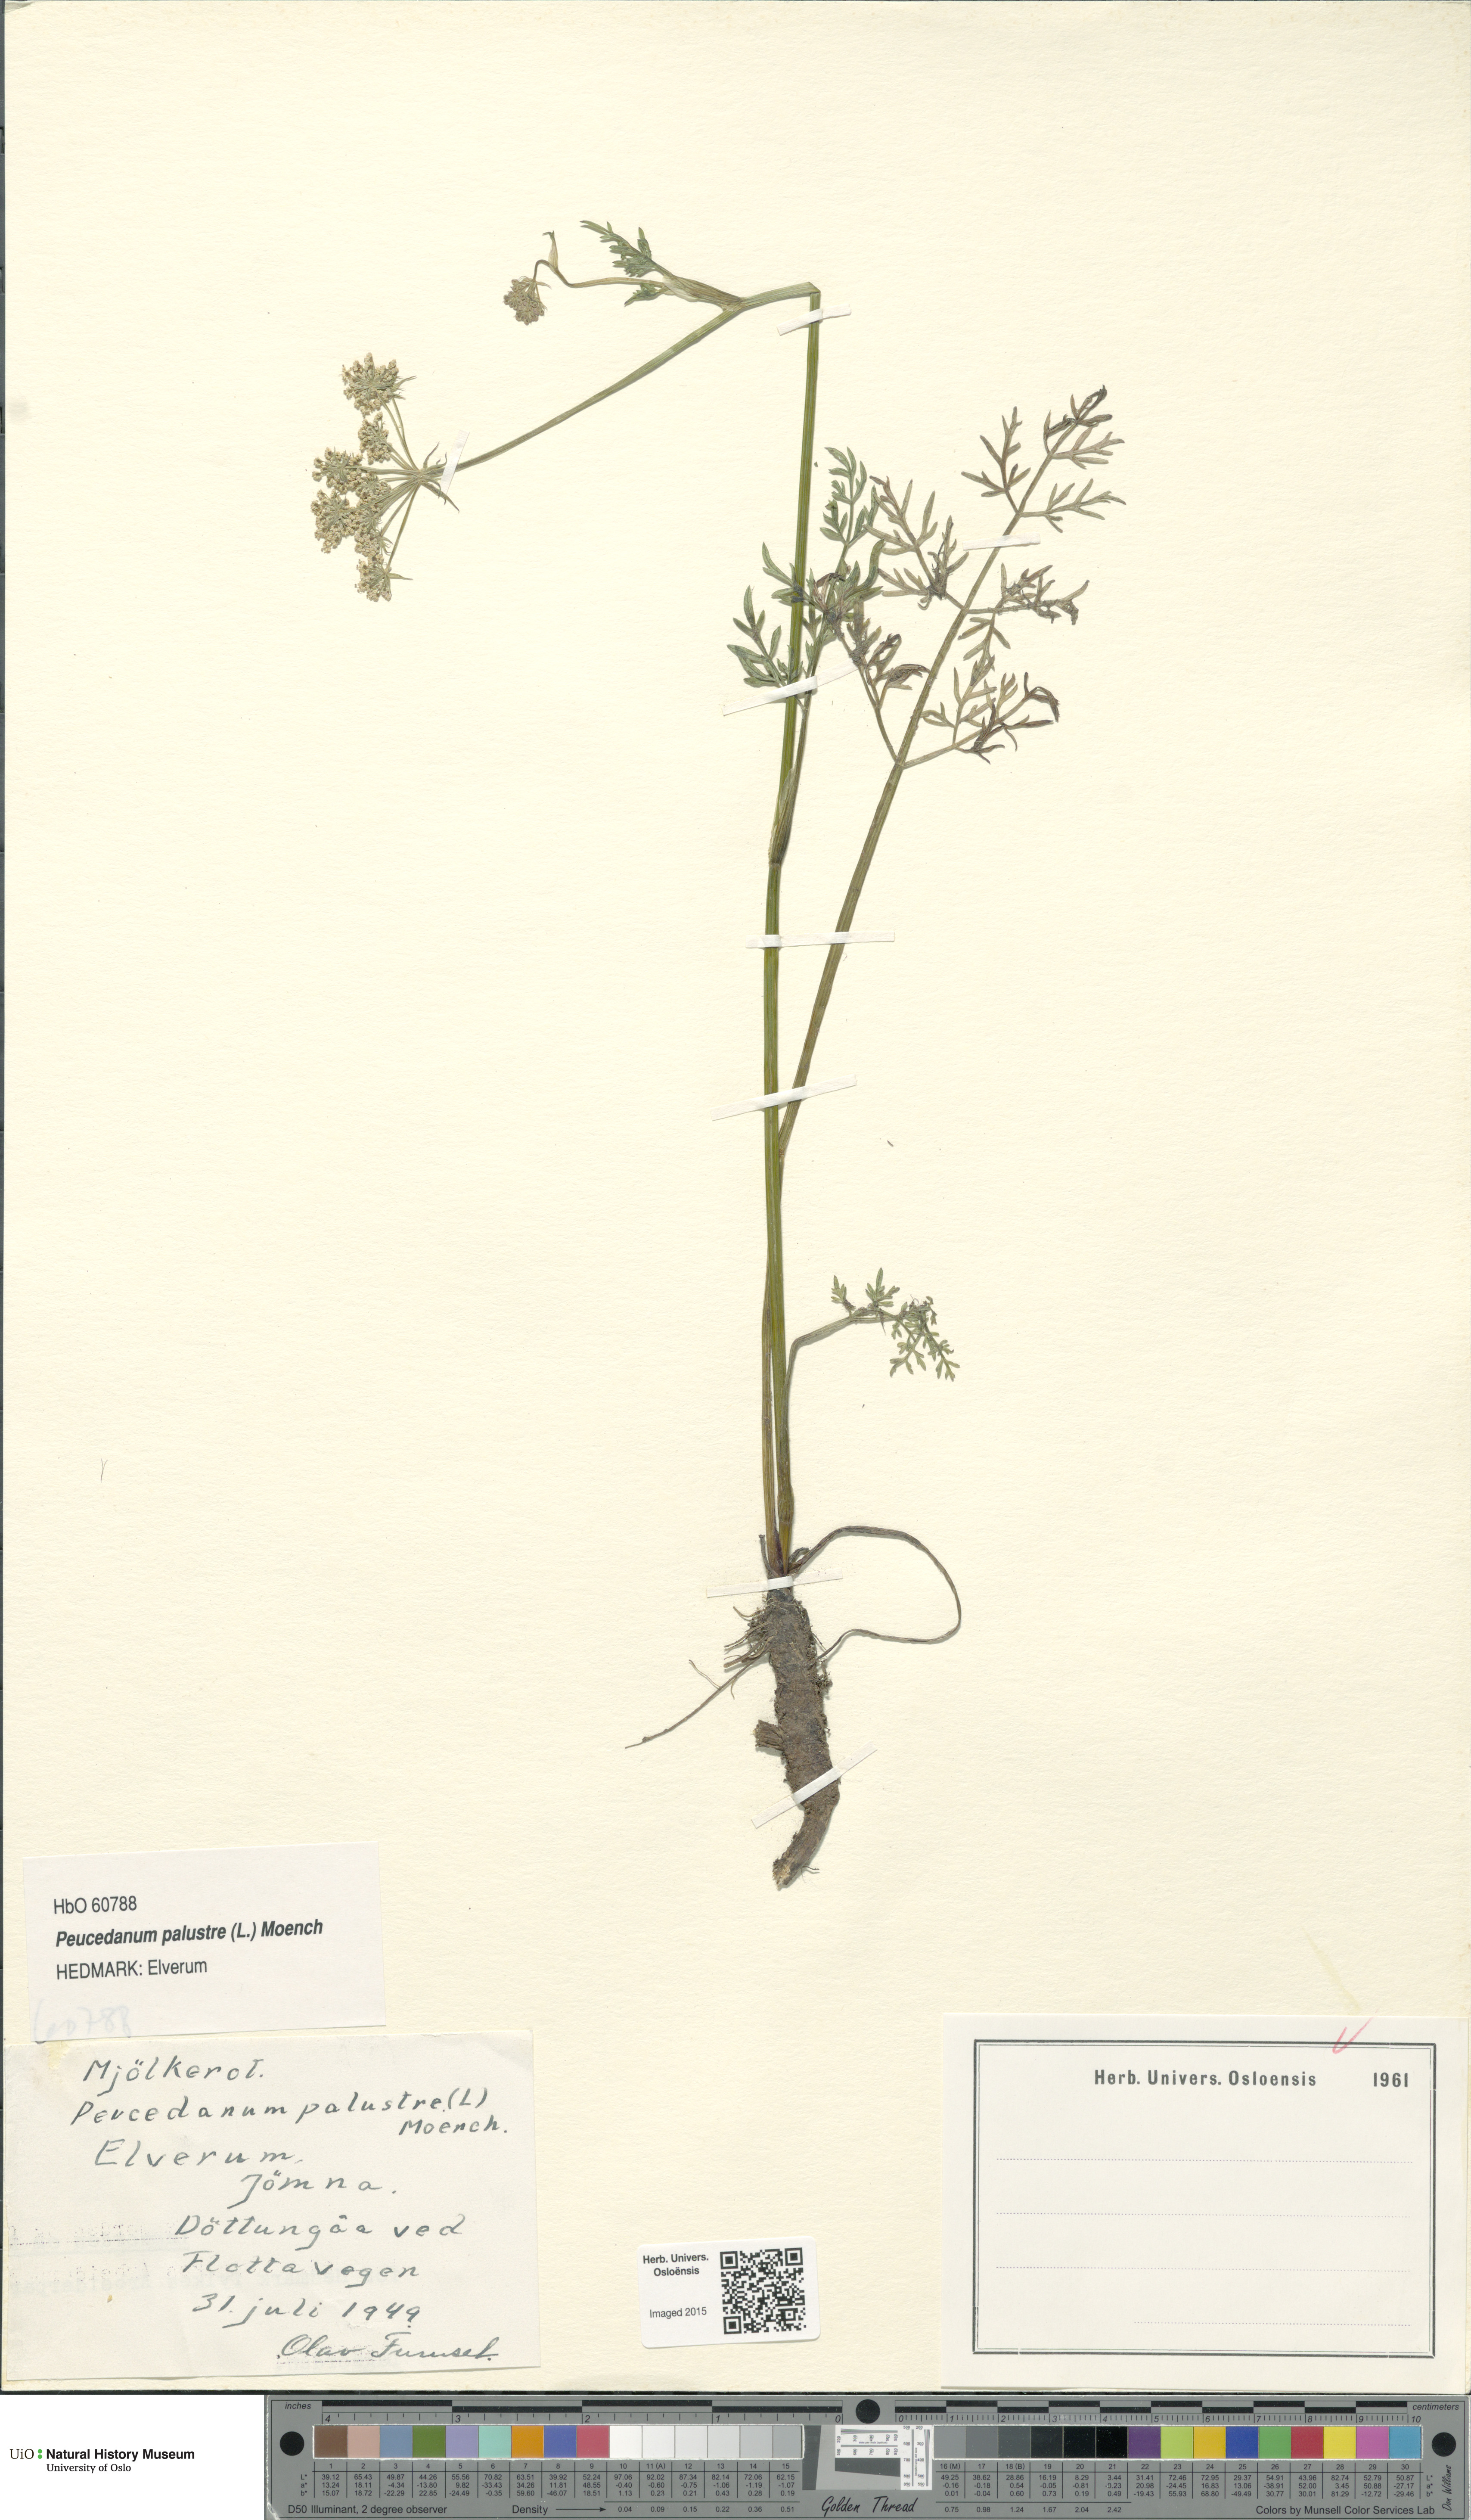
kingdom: Plantae
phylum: Tracheophyta
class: Magnoliopsida
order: Apiales
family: Apiaceae
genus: Thysselinum
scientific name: Thysselinum palustre
